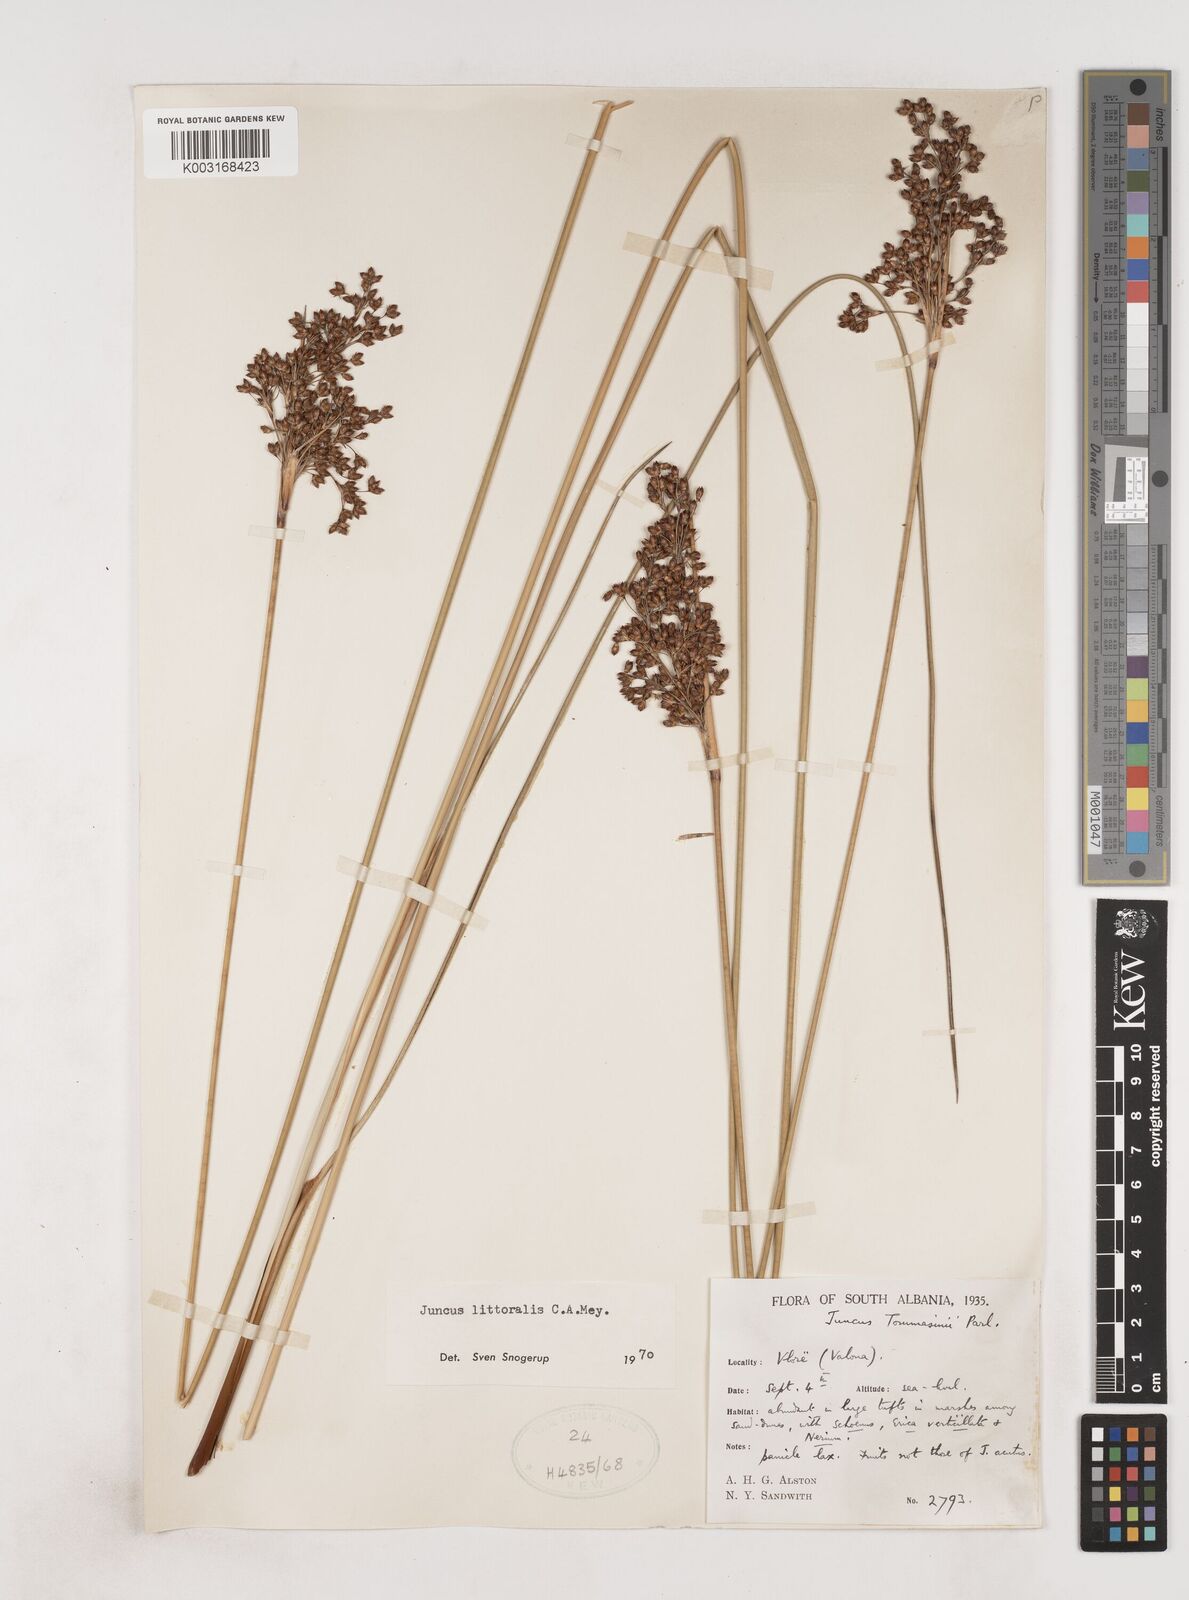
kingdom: Plantae
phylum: Tracheophyta
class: Liliopsida
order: Poales
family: Juncaceae
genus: Juncus
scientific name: Juncus
